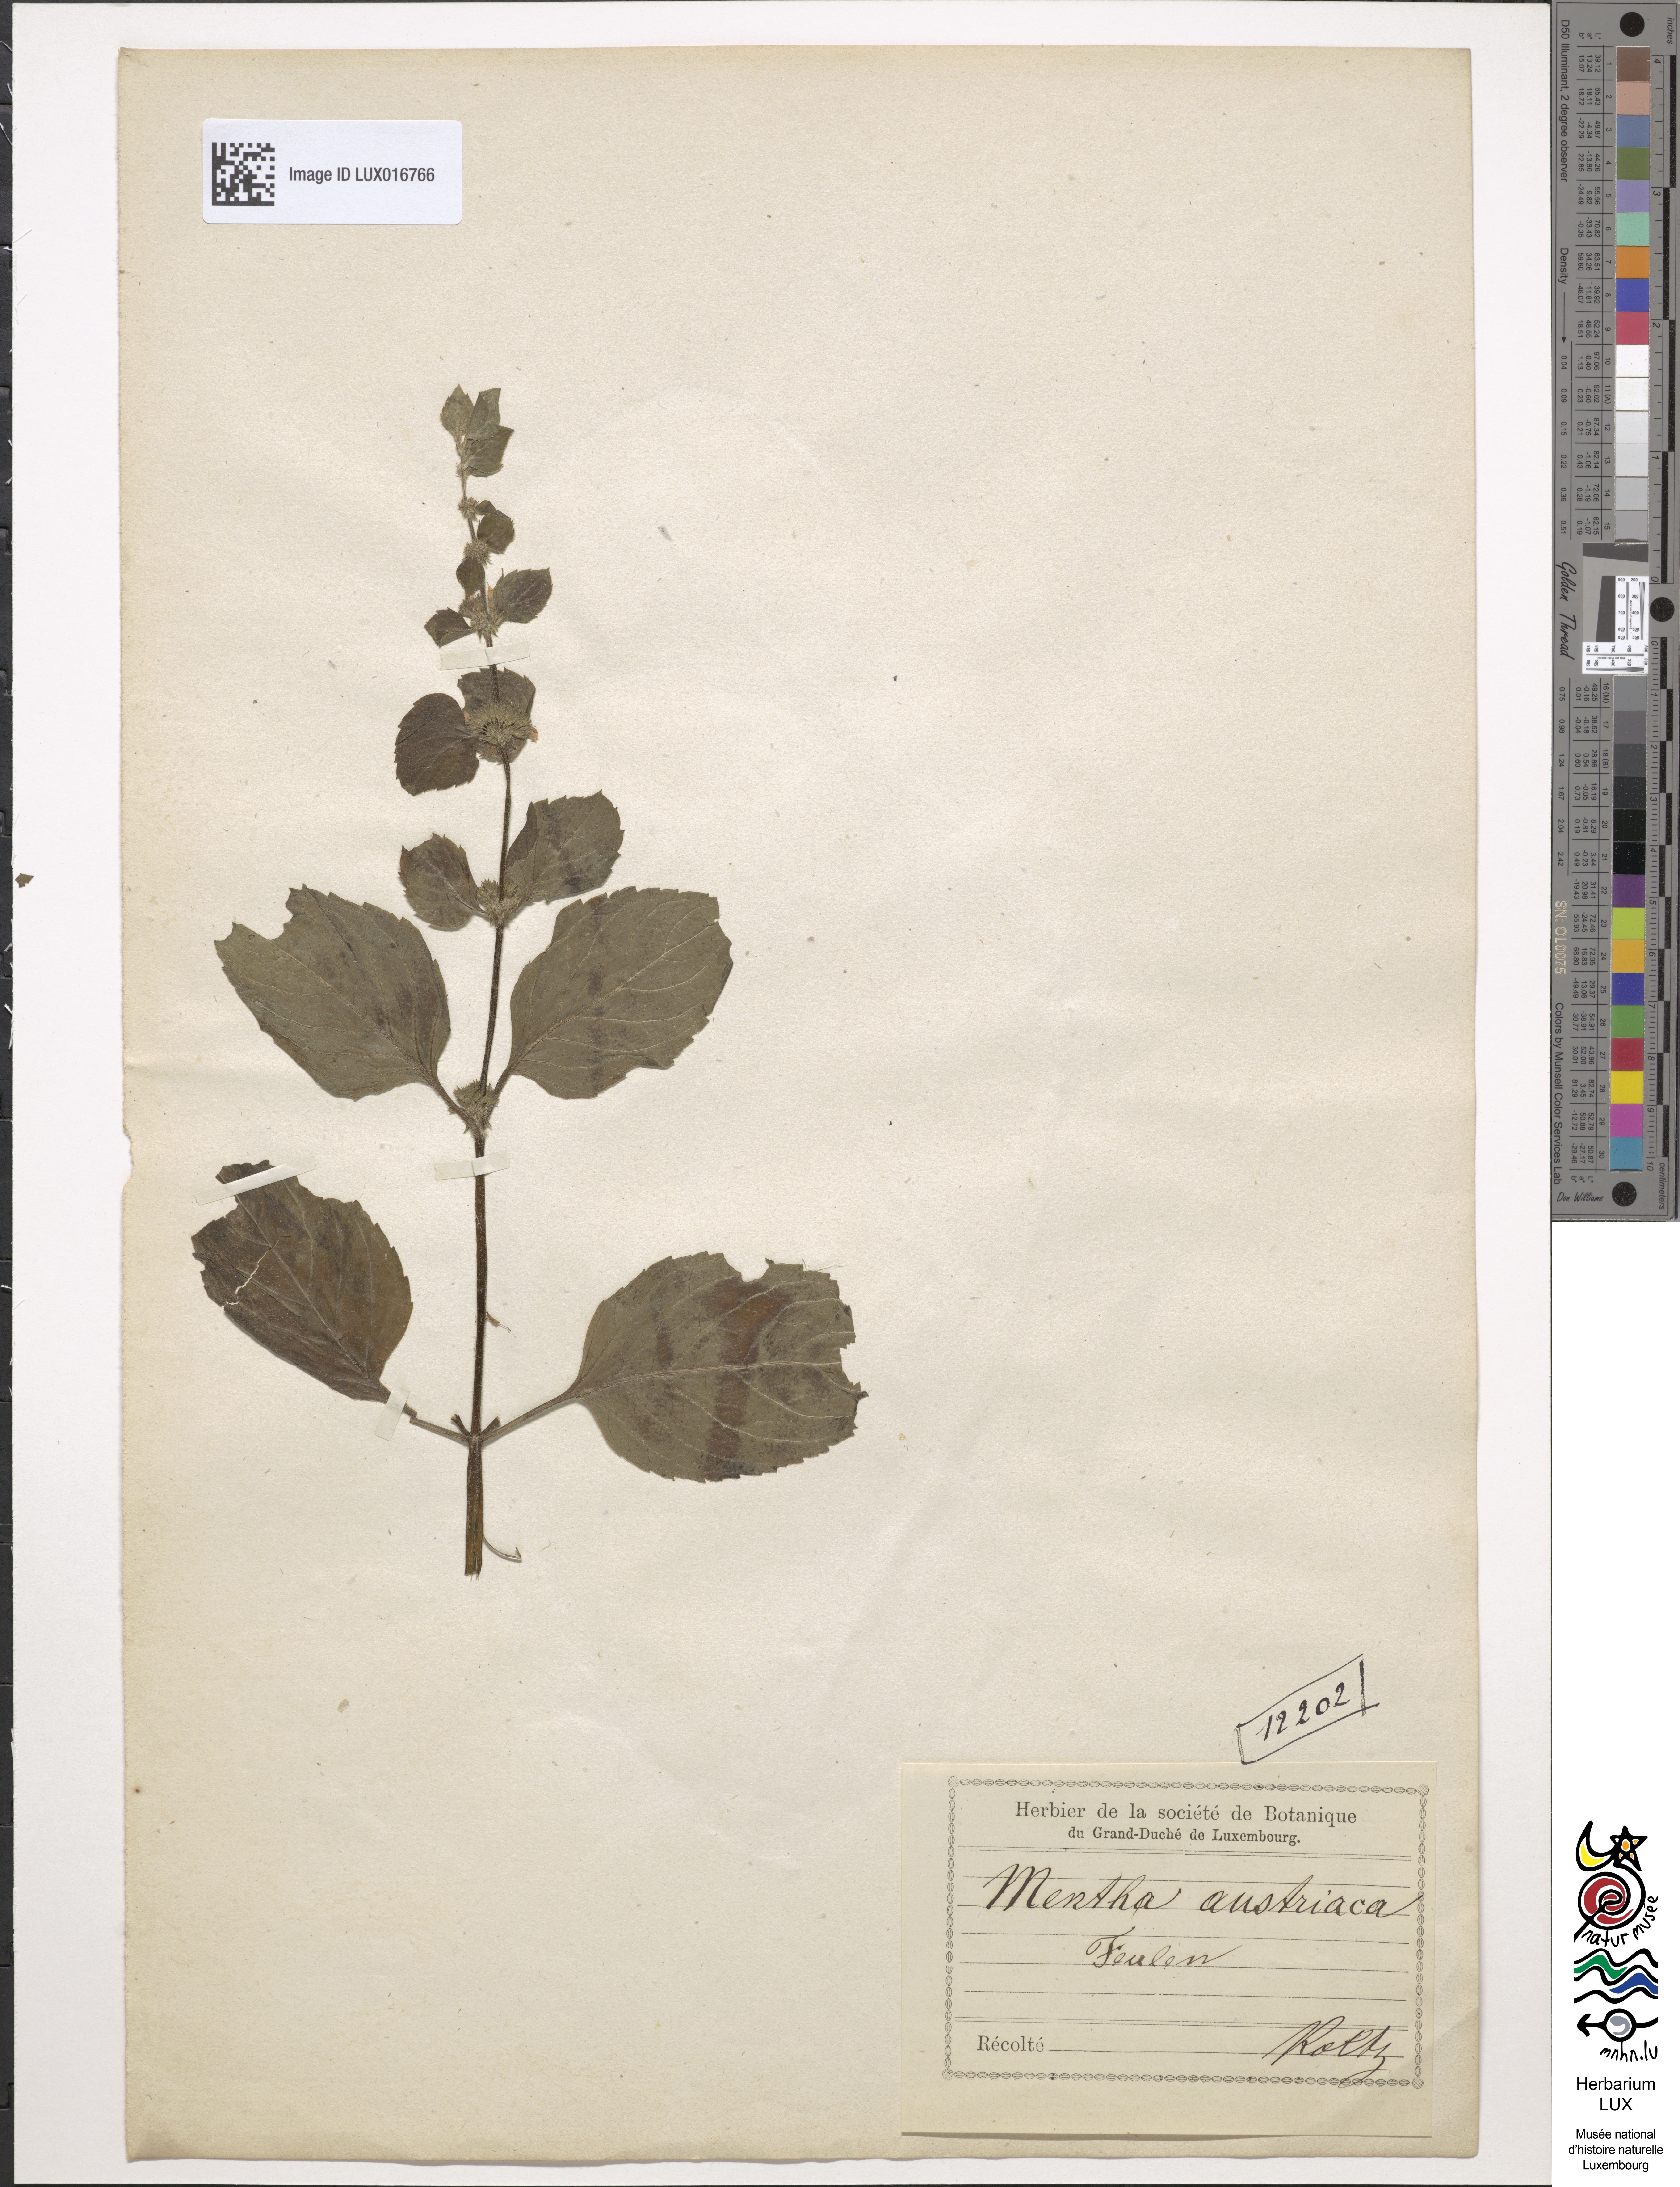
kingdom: Plantae
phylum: Tracheophyta
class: Magnoliopsida
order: Lamiales
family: Lamiaceae
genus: Mentha
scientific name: Mentha arvensis
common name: Corn mint
